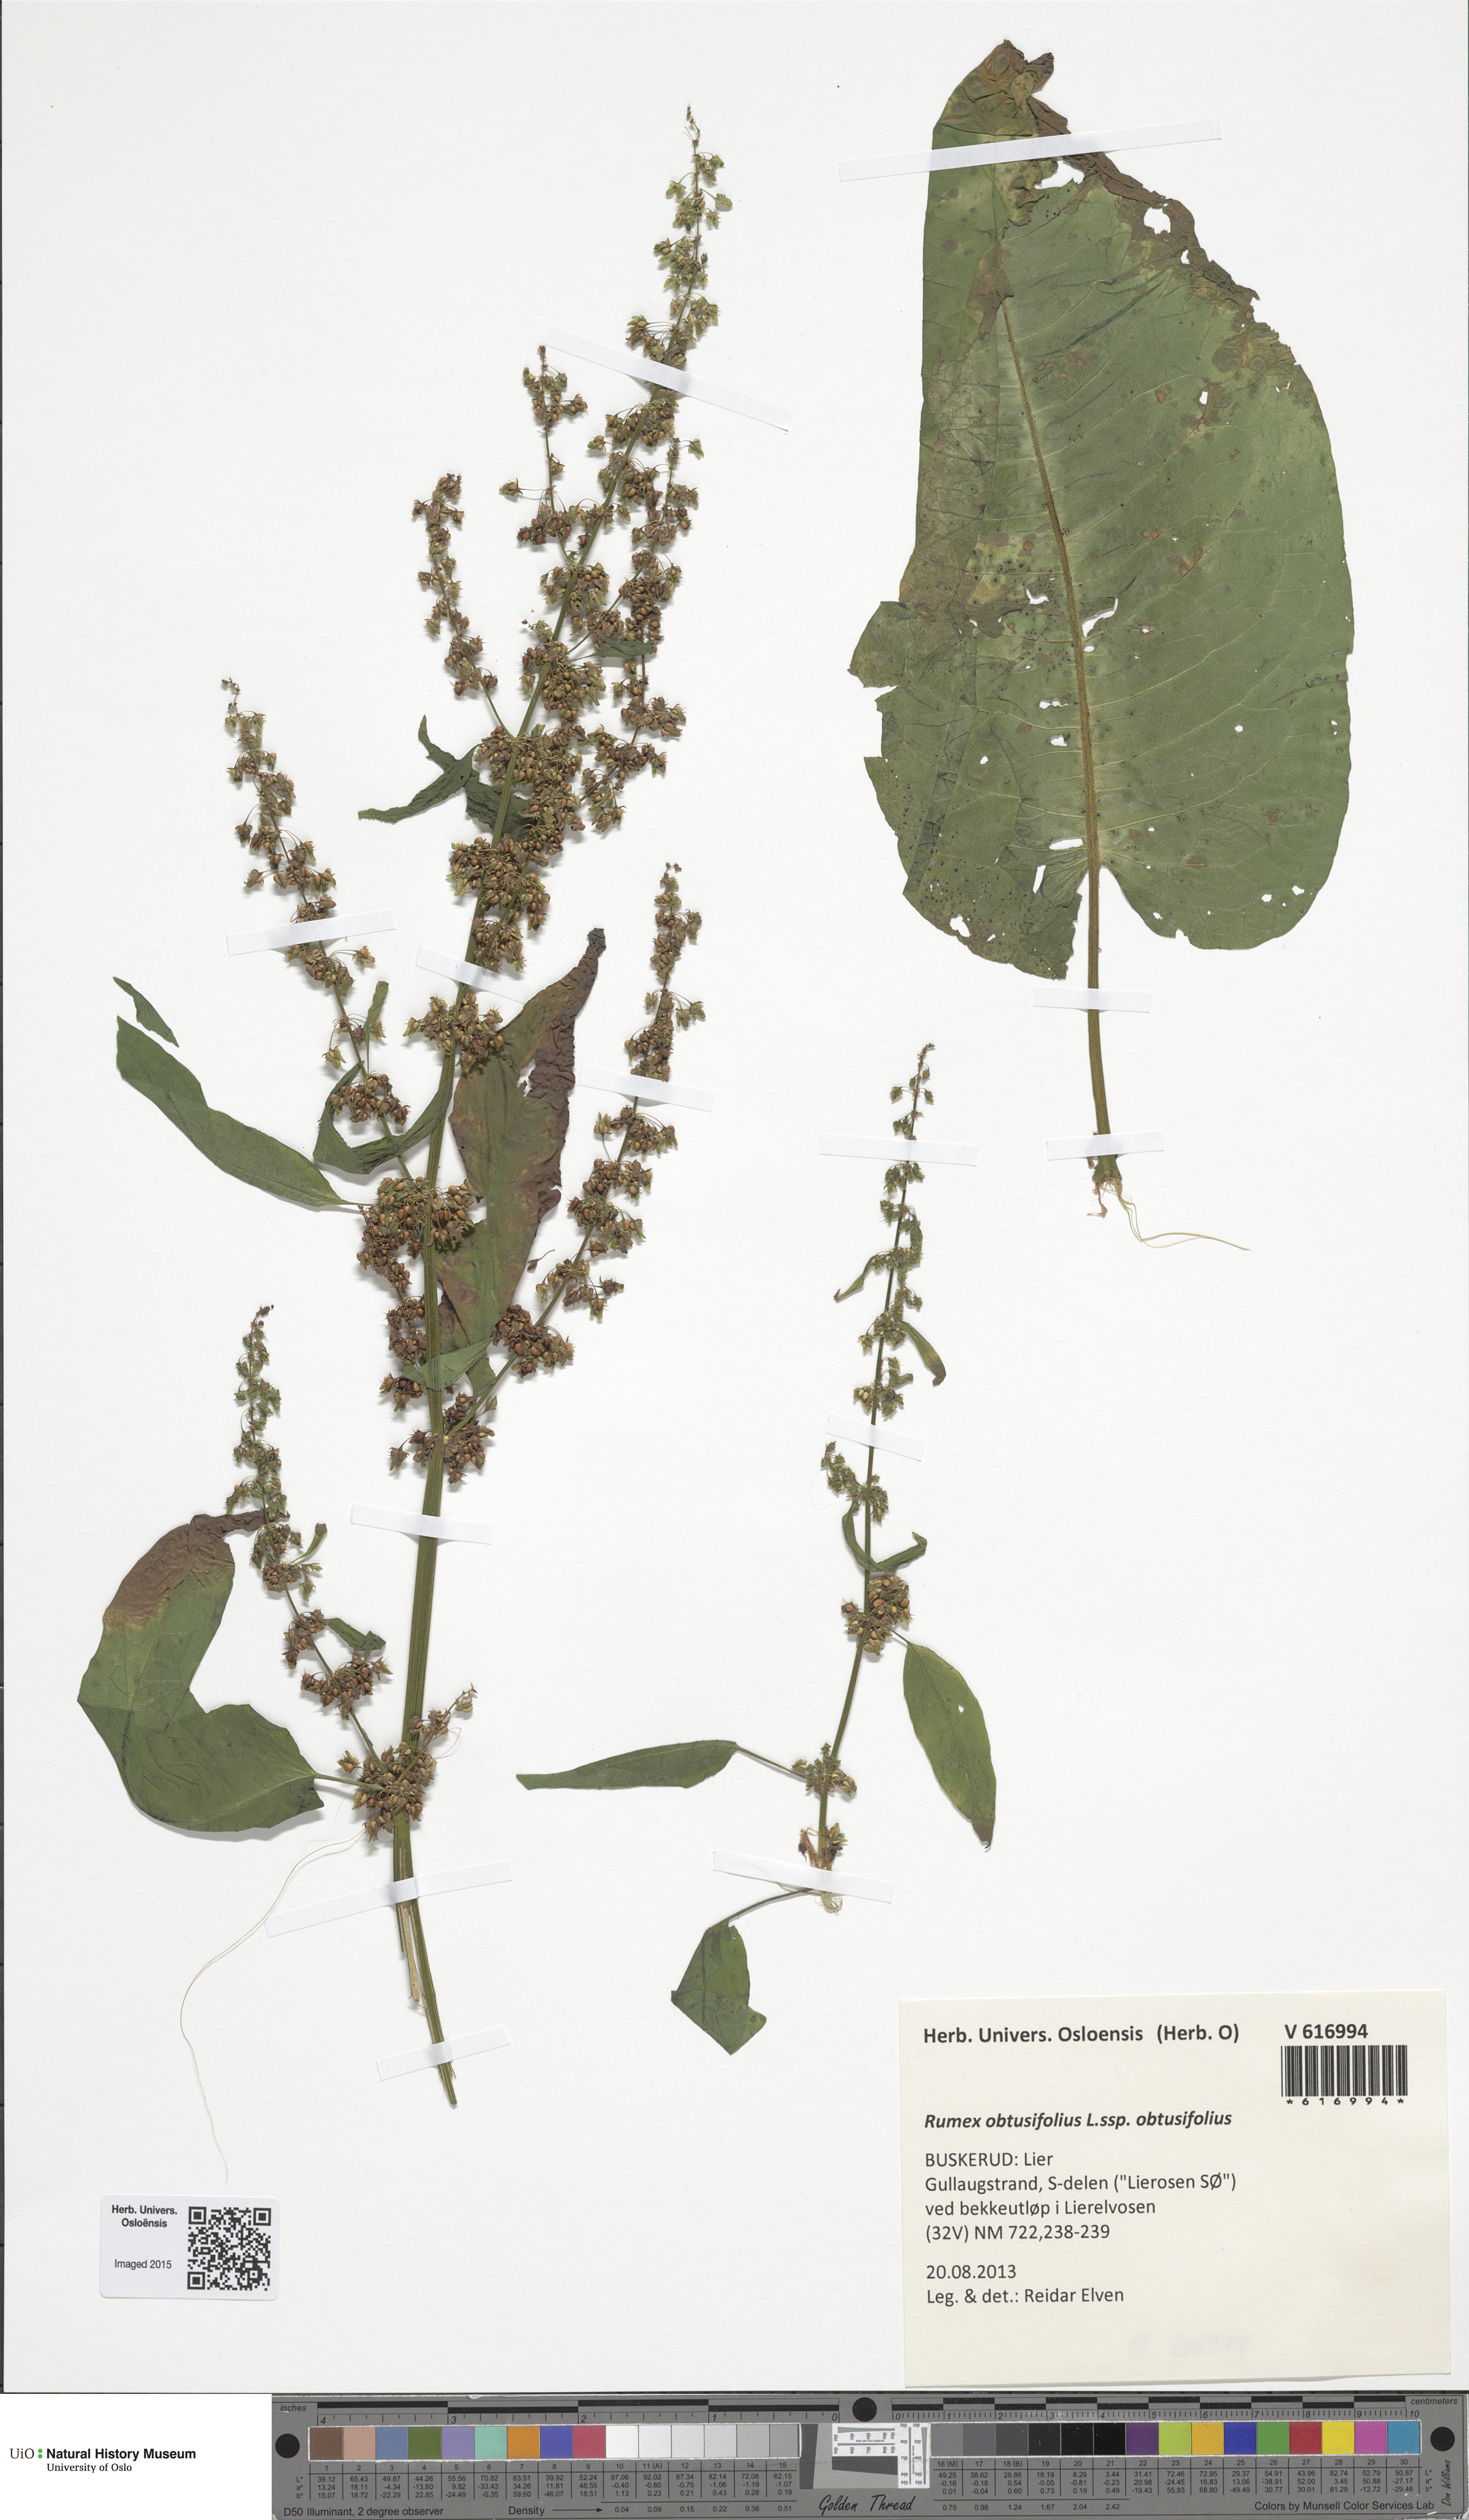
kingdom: Plantae
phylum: Tracheophyta
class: Magnoliopsida
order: Caryophyllales
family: Polygonaceae
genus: Rumex
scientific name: Rumex obtusifolius
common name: Bitter dock
